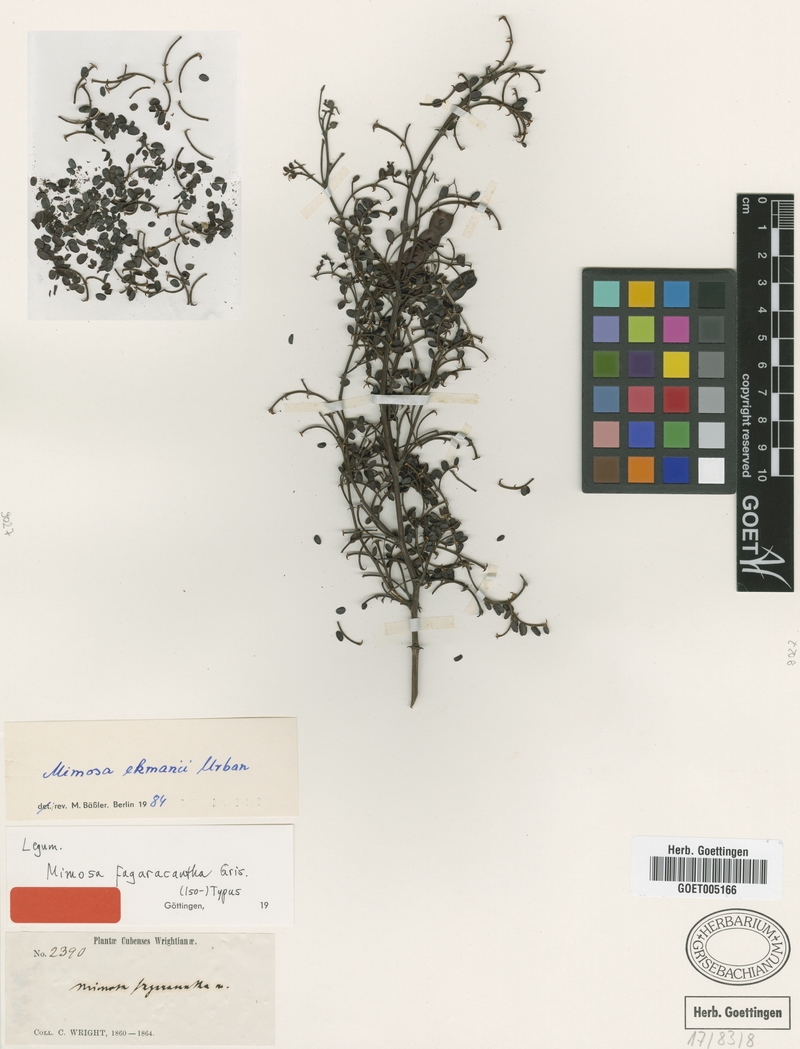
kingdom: Plantae
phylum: Tracheophyta
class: Magnoliopsida
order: Fabales
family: Fabaceae
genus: Mimosa
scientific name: Mimosa fagaracantha
